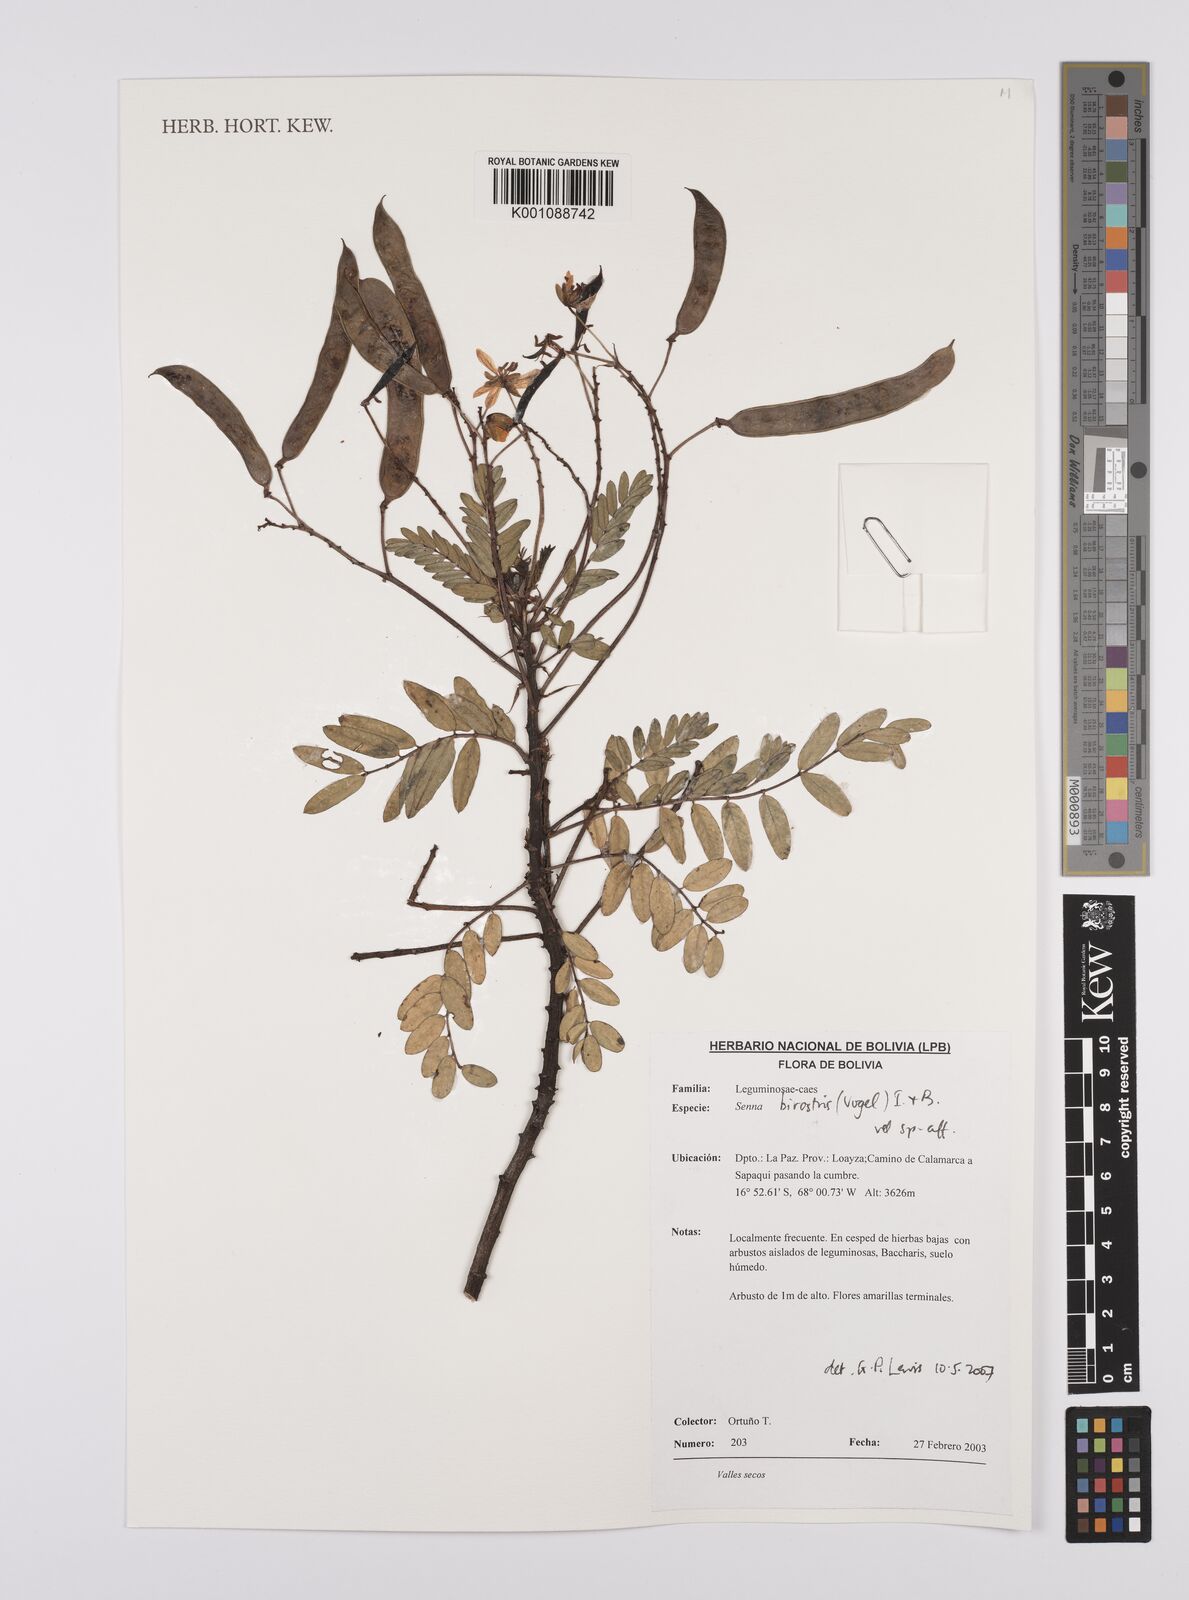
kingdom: Plantae
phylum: Tracheophyta
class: Magnoliopsida
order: Fabales
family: Fabaceae
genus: Senna
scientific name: Senna birostris
